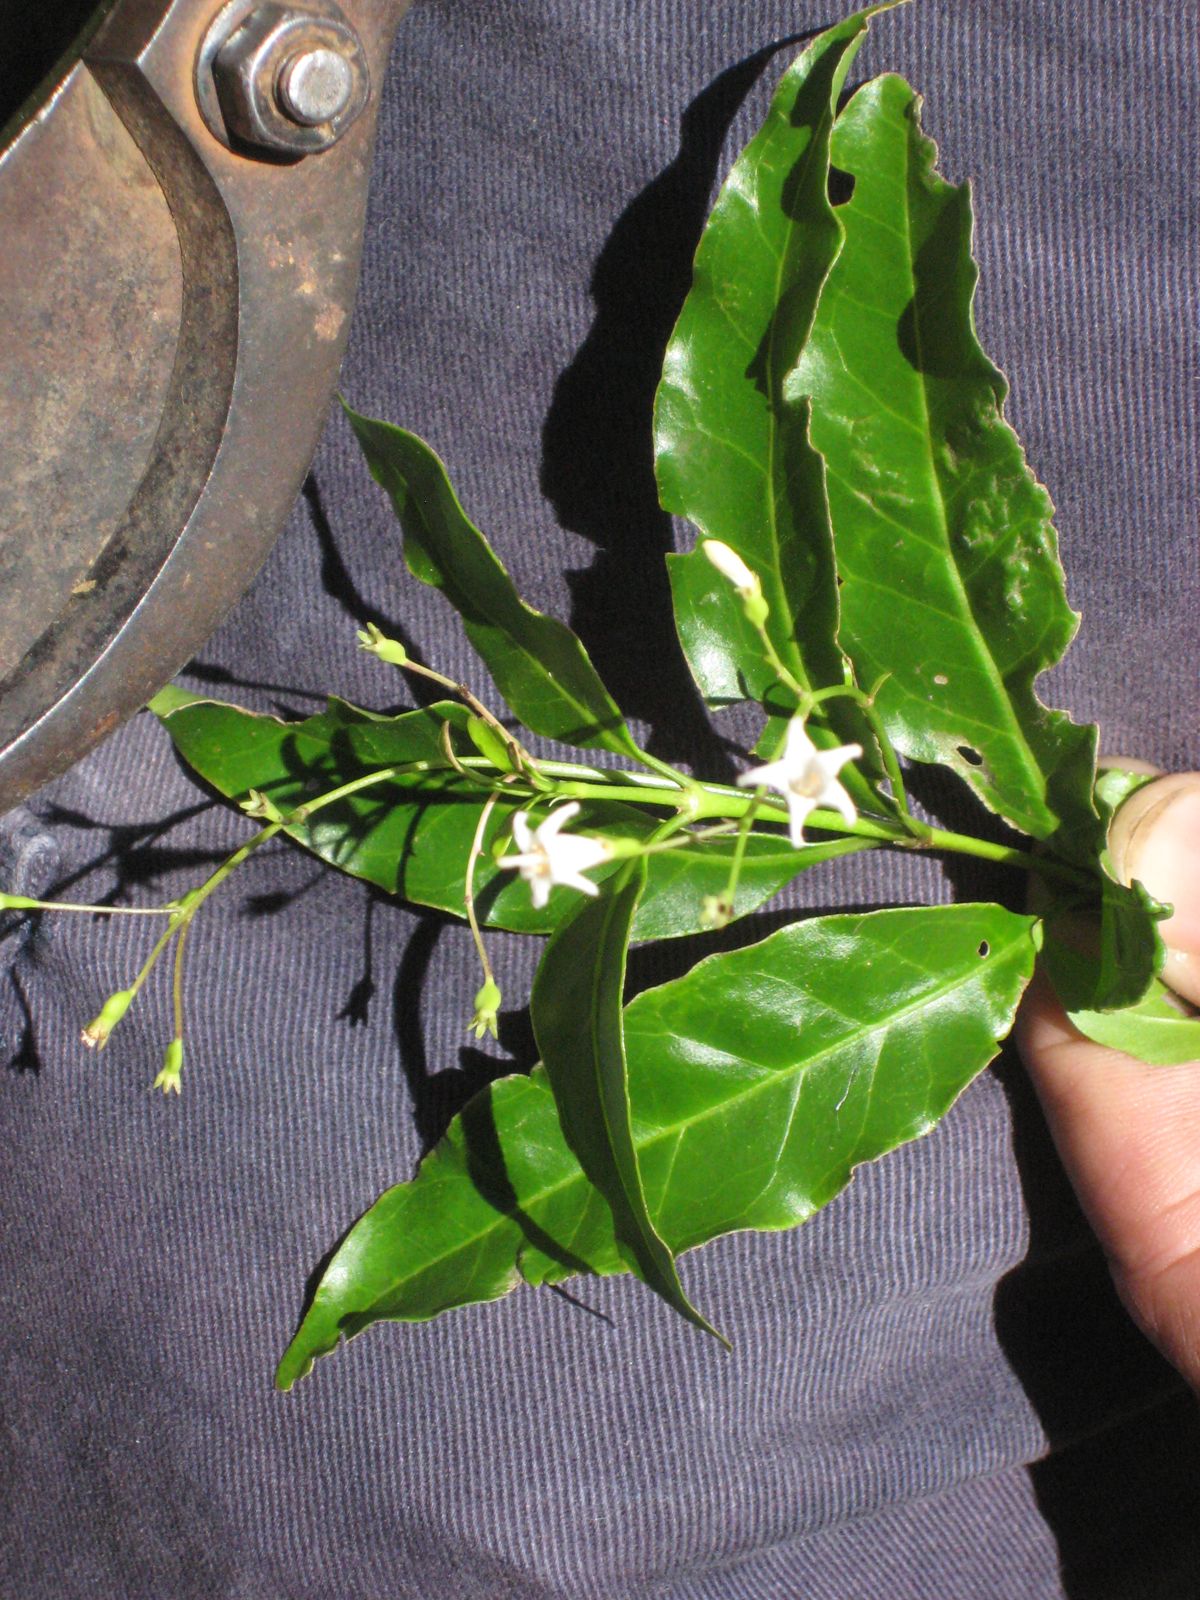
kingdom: Plantae
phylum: Tracheophyta
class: Magnoliopsida
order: Gentianales
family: Rubiaceae
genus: Chiococca
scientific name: Chiococca alba
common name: Snowberry
